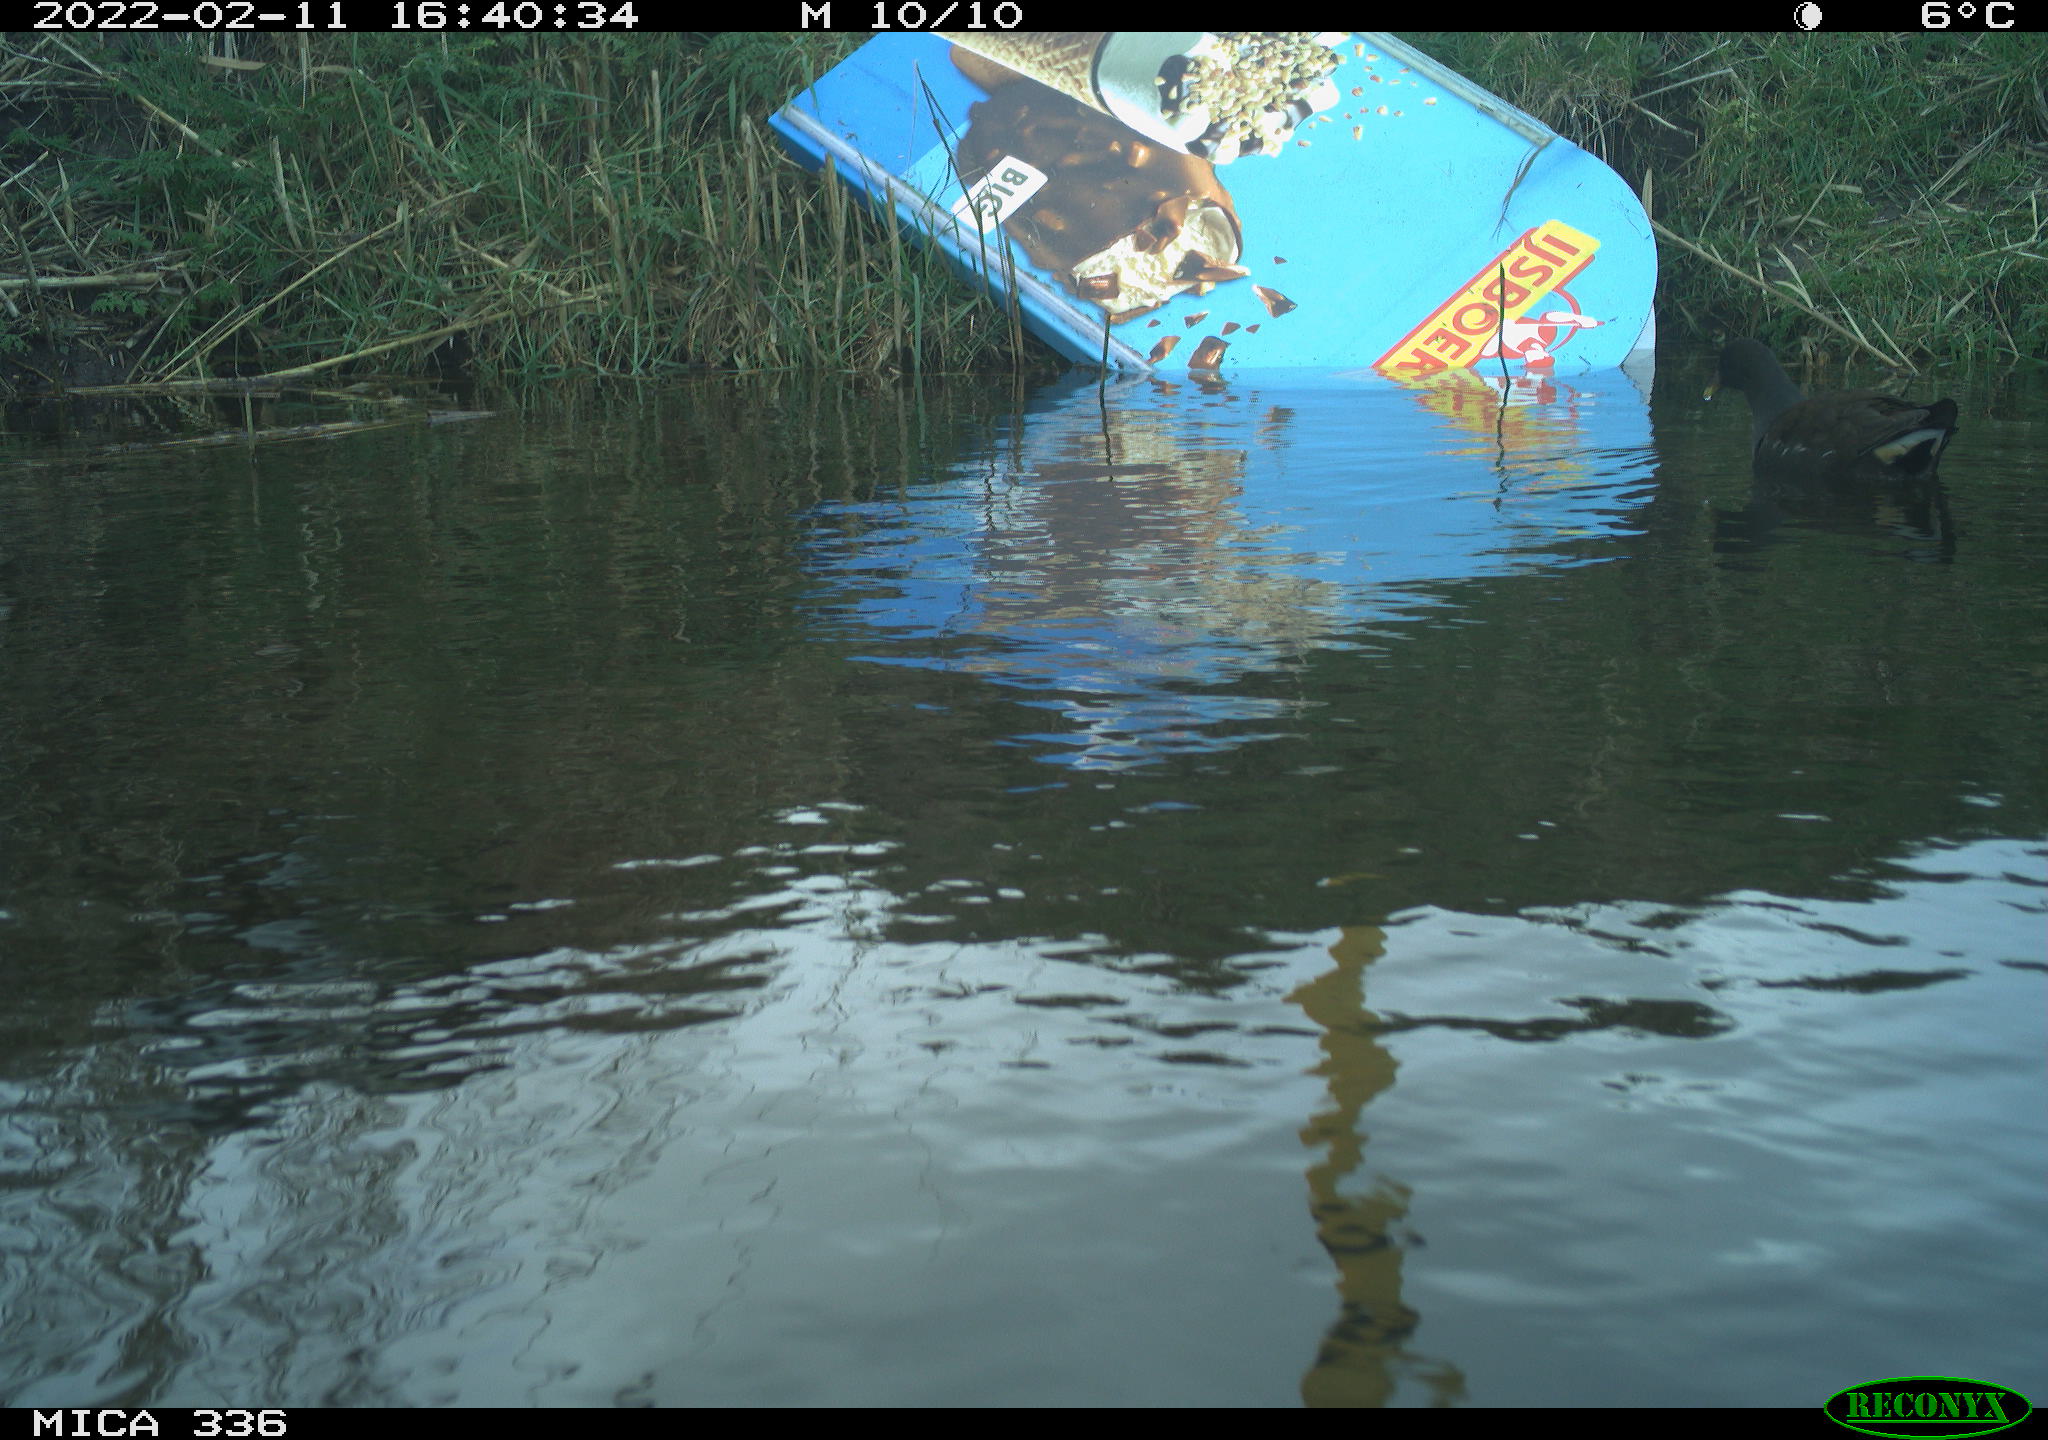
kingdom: Animalia
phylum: Chordata
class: Aves
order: Gruiformes
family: Rallidae
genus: Gallinula
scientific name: Gallinula chloropus
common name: Common moorhen
